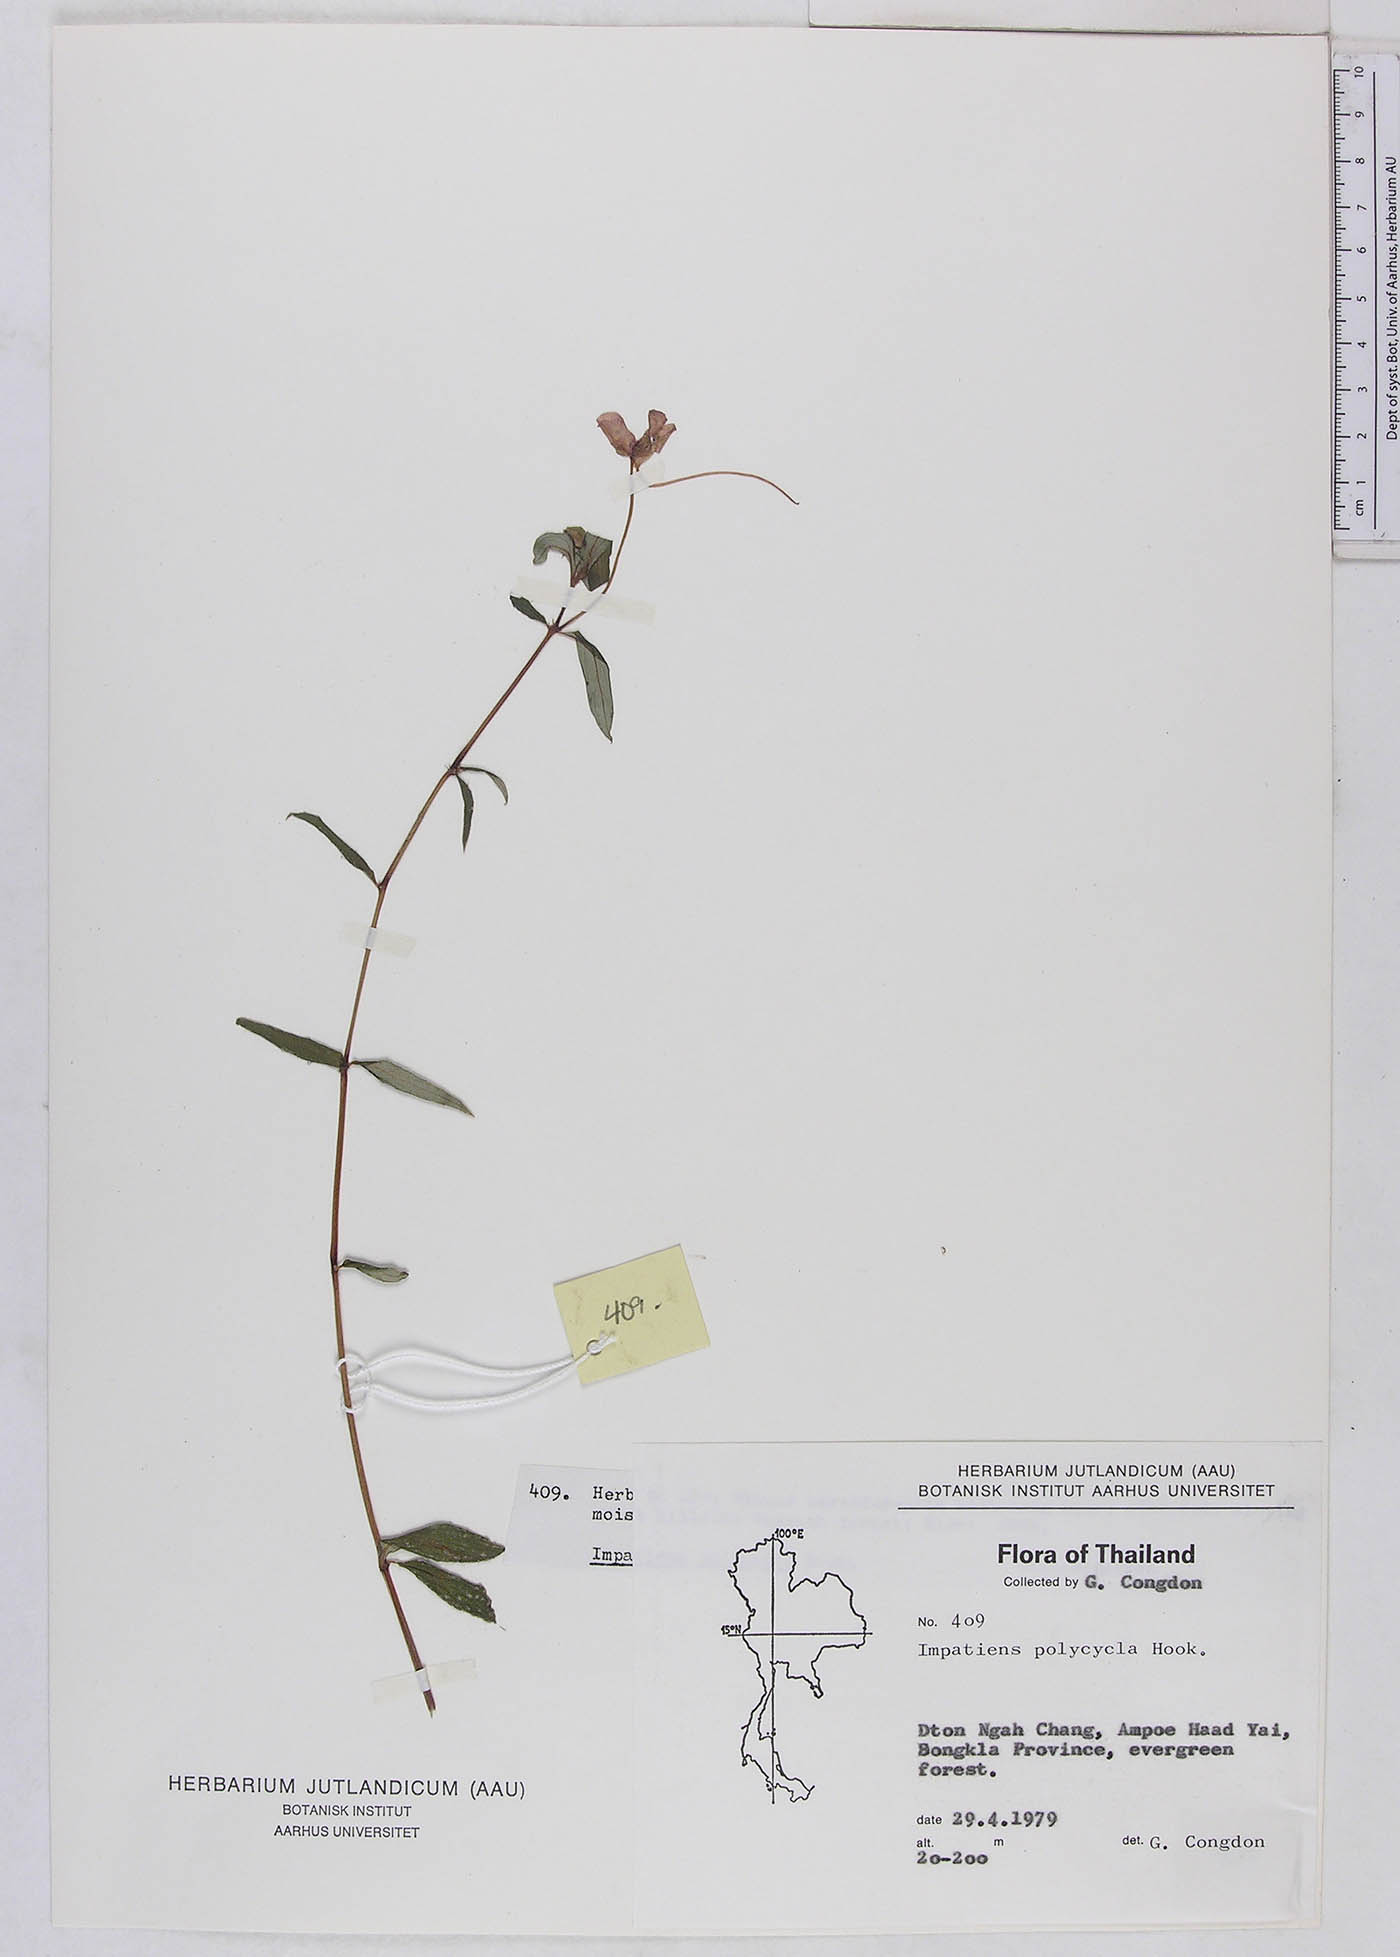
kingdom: Plantae
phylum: Tracheophyta
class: Magnoliopsida
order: Ericales
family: Balsaminaceae
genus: Impatiens
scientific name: Impatiens griffithii
